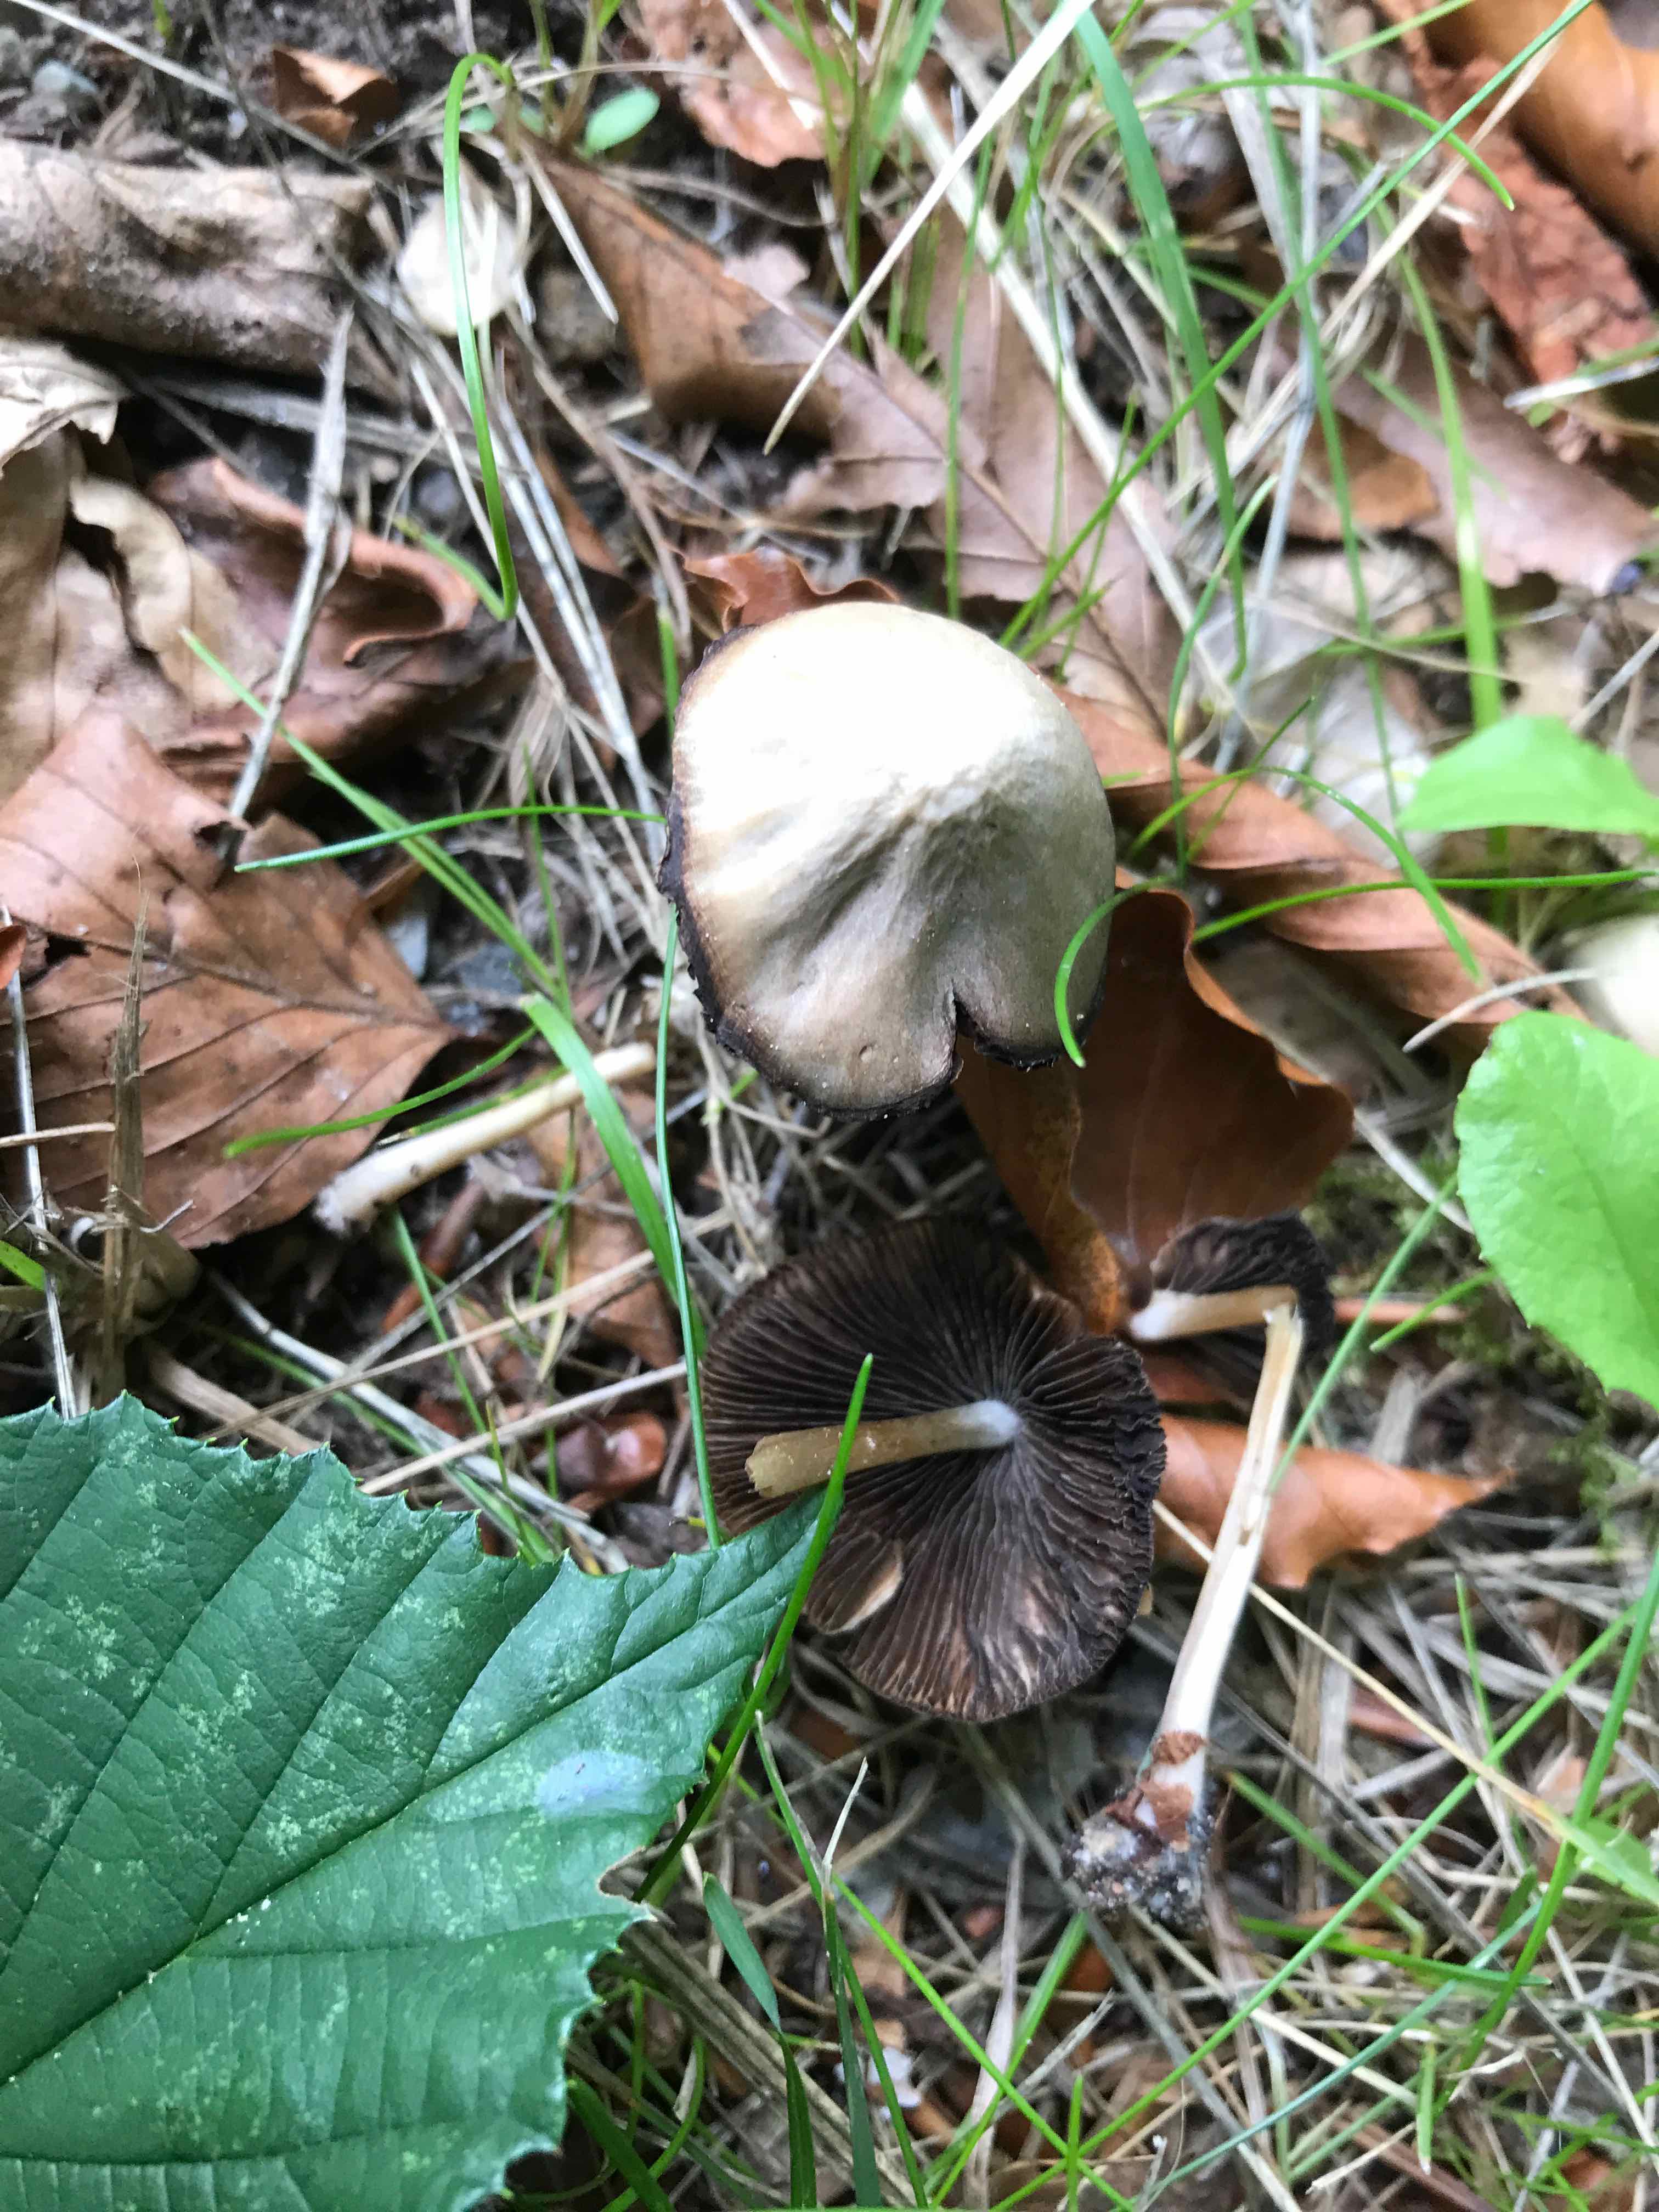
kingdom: Fungi
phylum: Basidiomycota
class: Agaricomycetes
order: Agaricales
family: Psathyrellaceae
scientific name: Psathyrellaceae
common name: mørkhatfamilien
